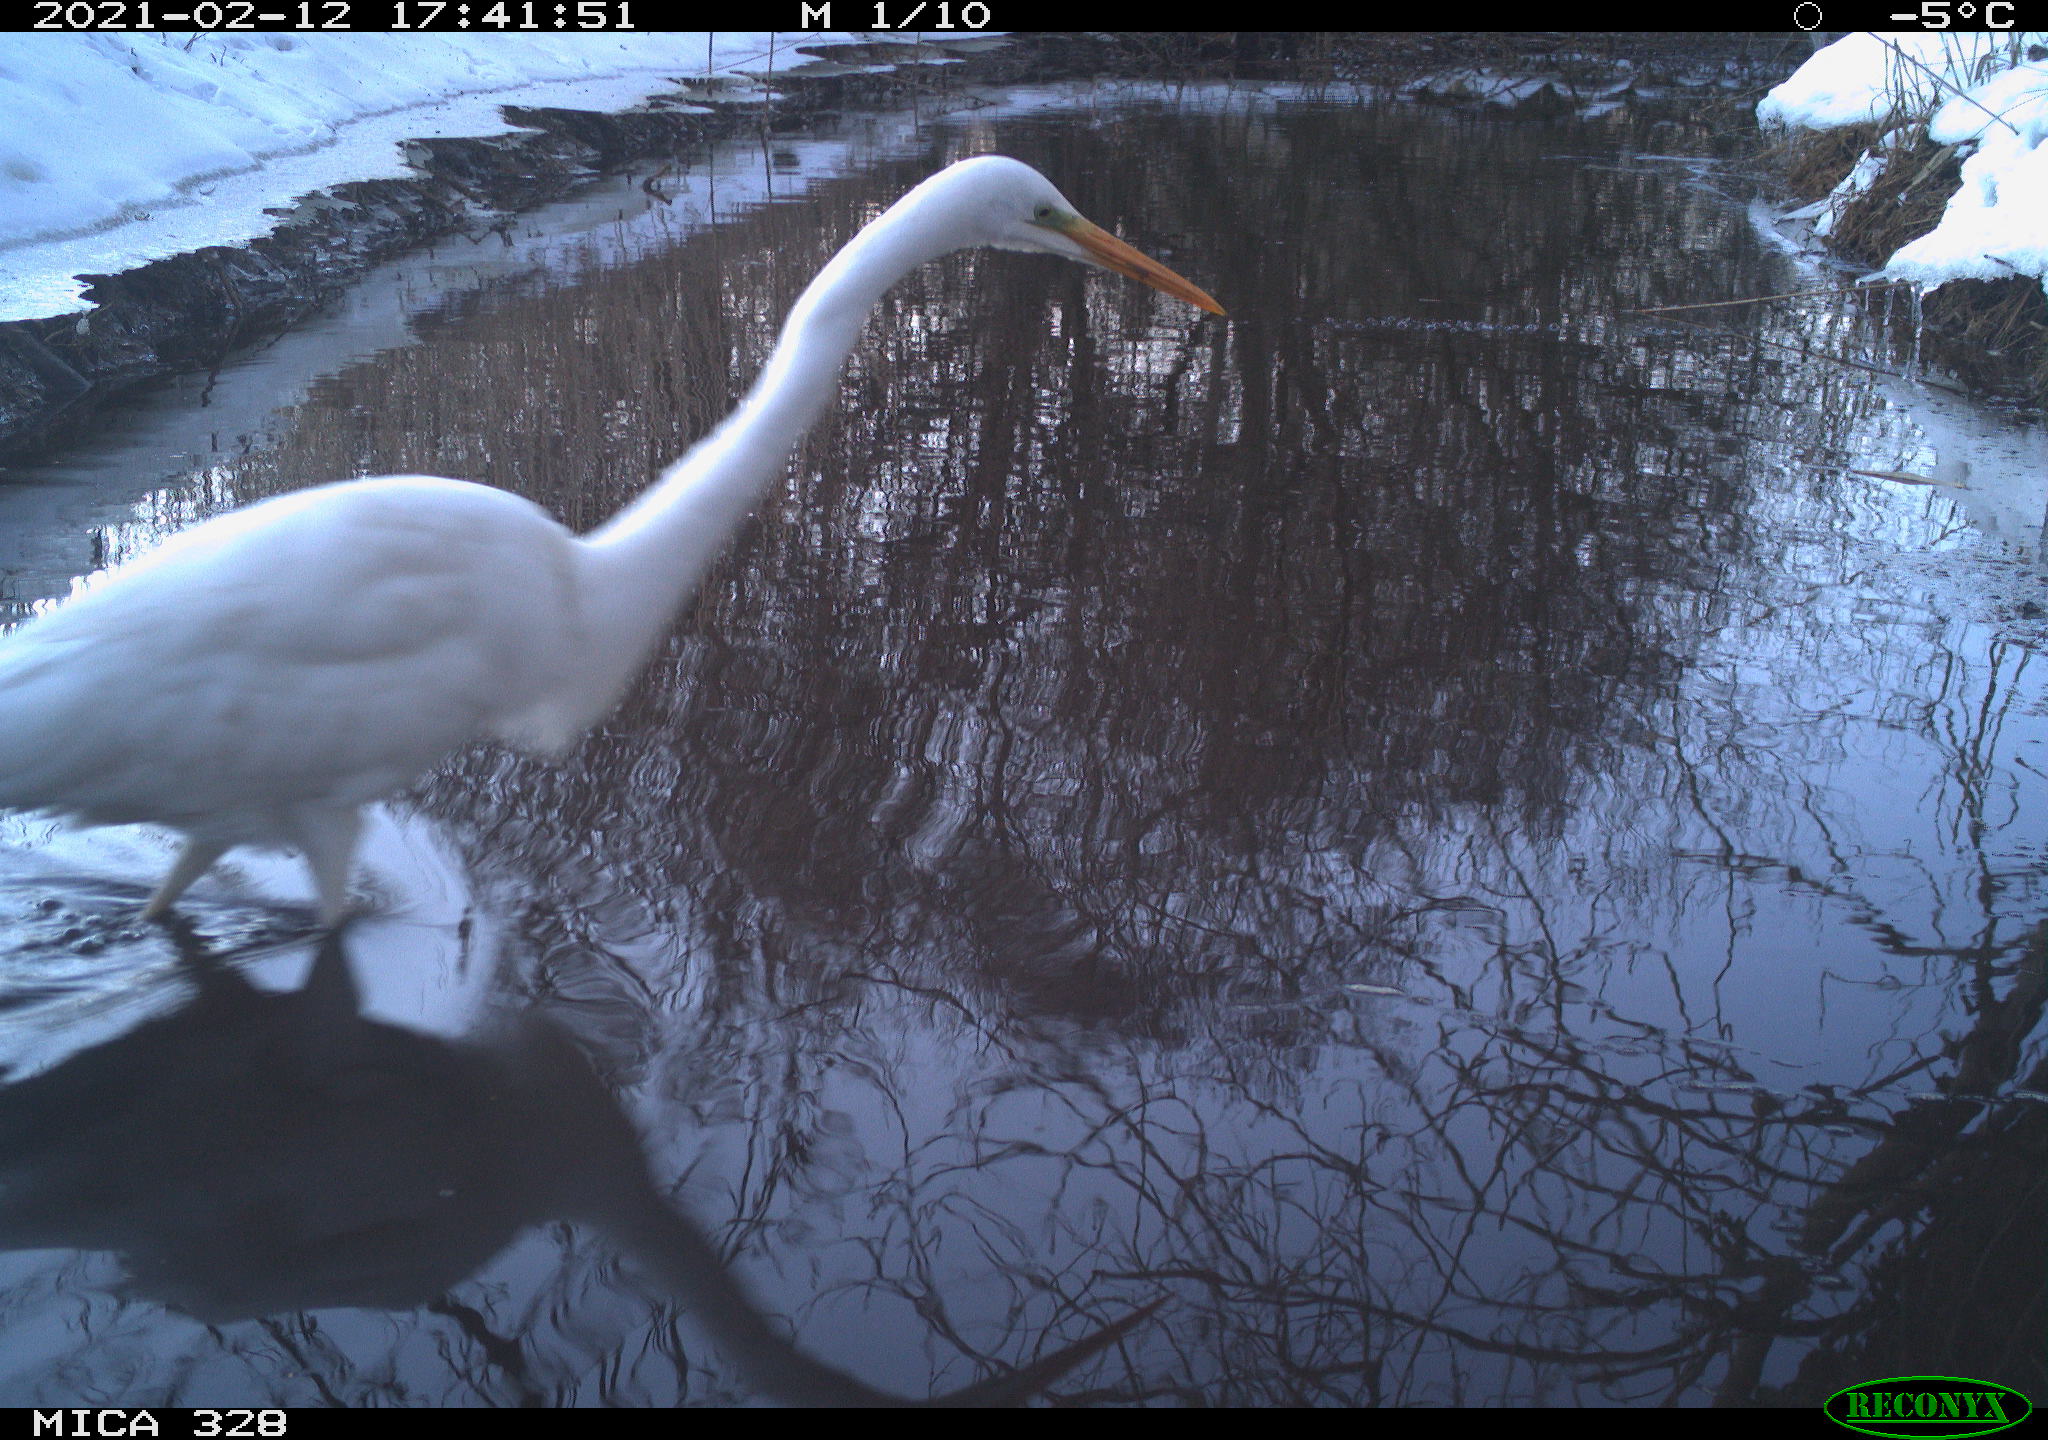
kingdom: Animalia
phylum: Chordata
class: Aves
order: Pelecaniformes
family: Ardeidae
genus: Ardea
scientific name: Ardea alba
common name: Great egret
